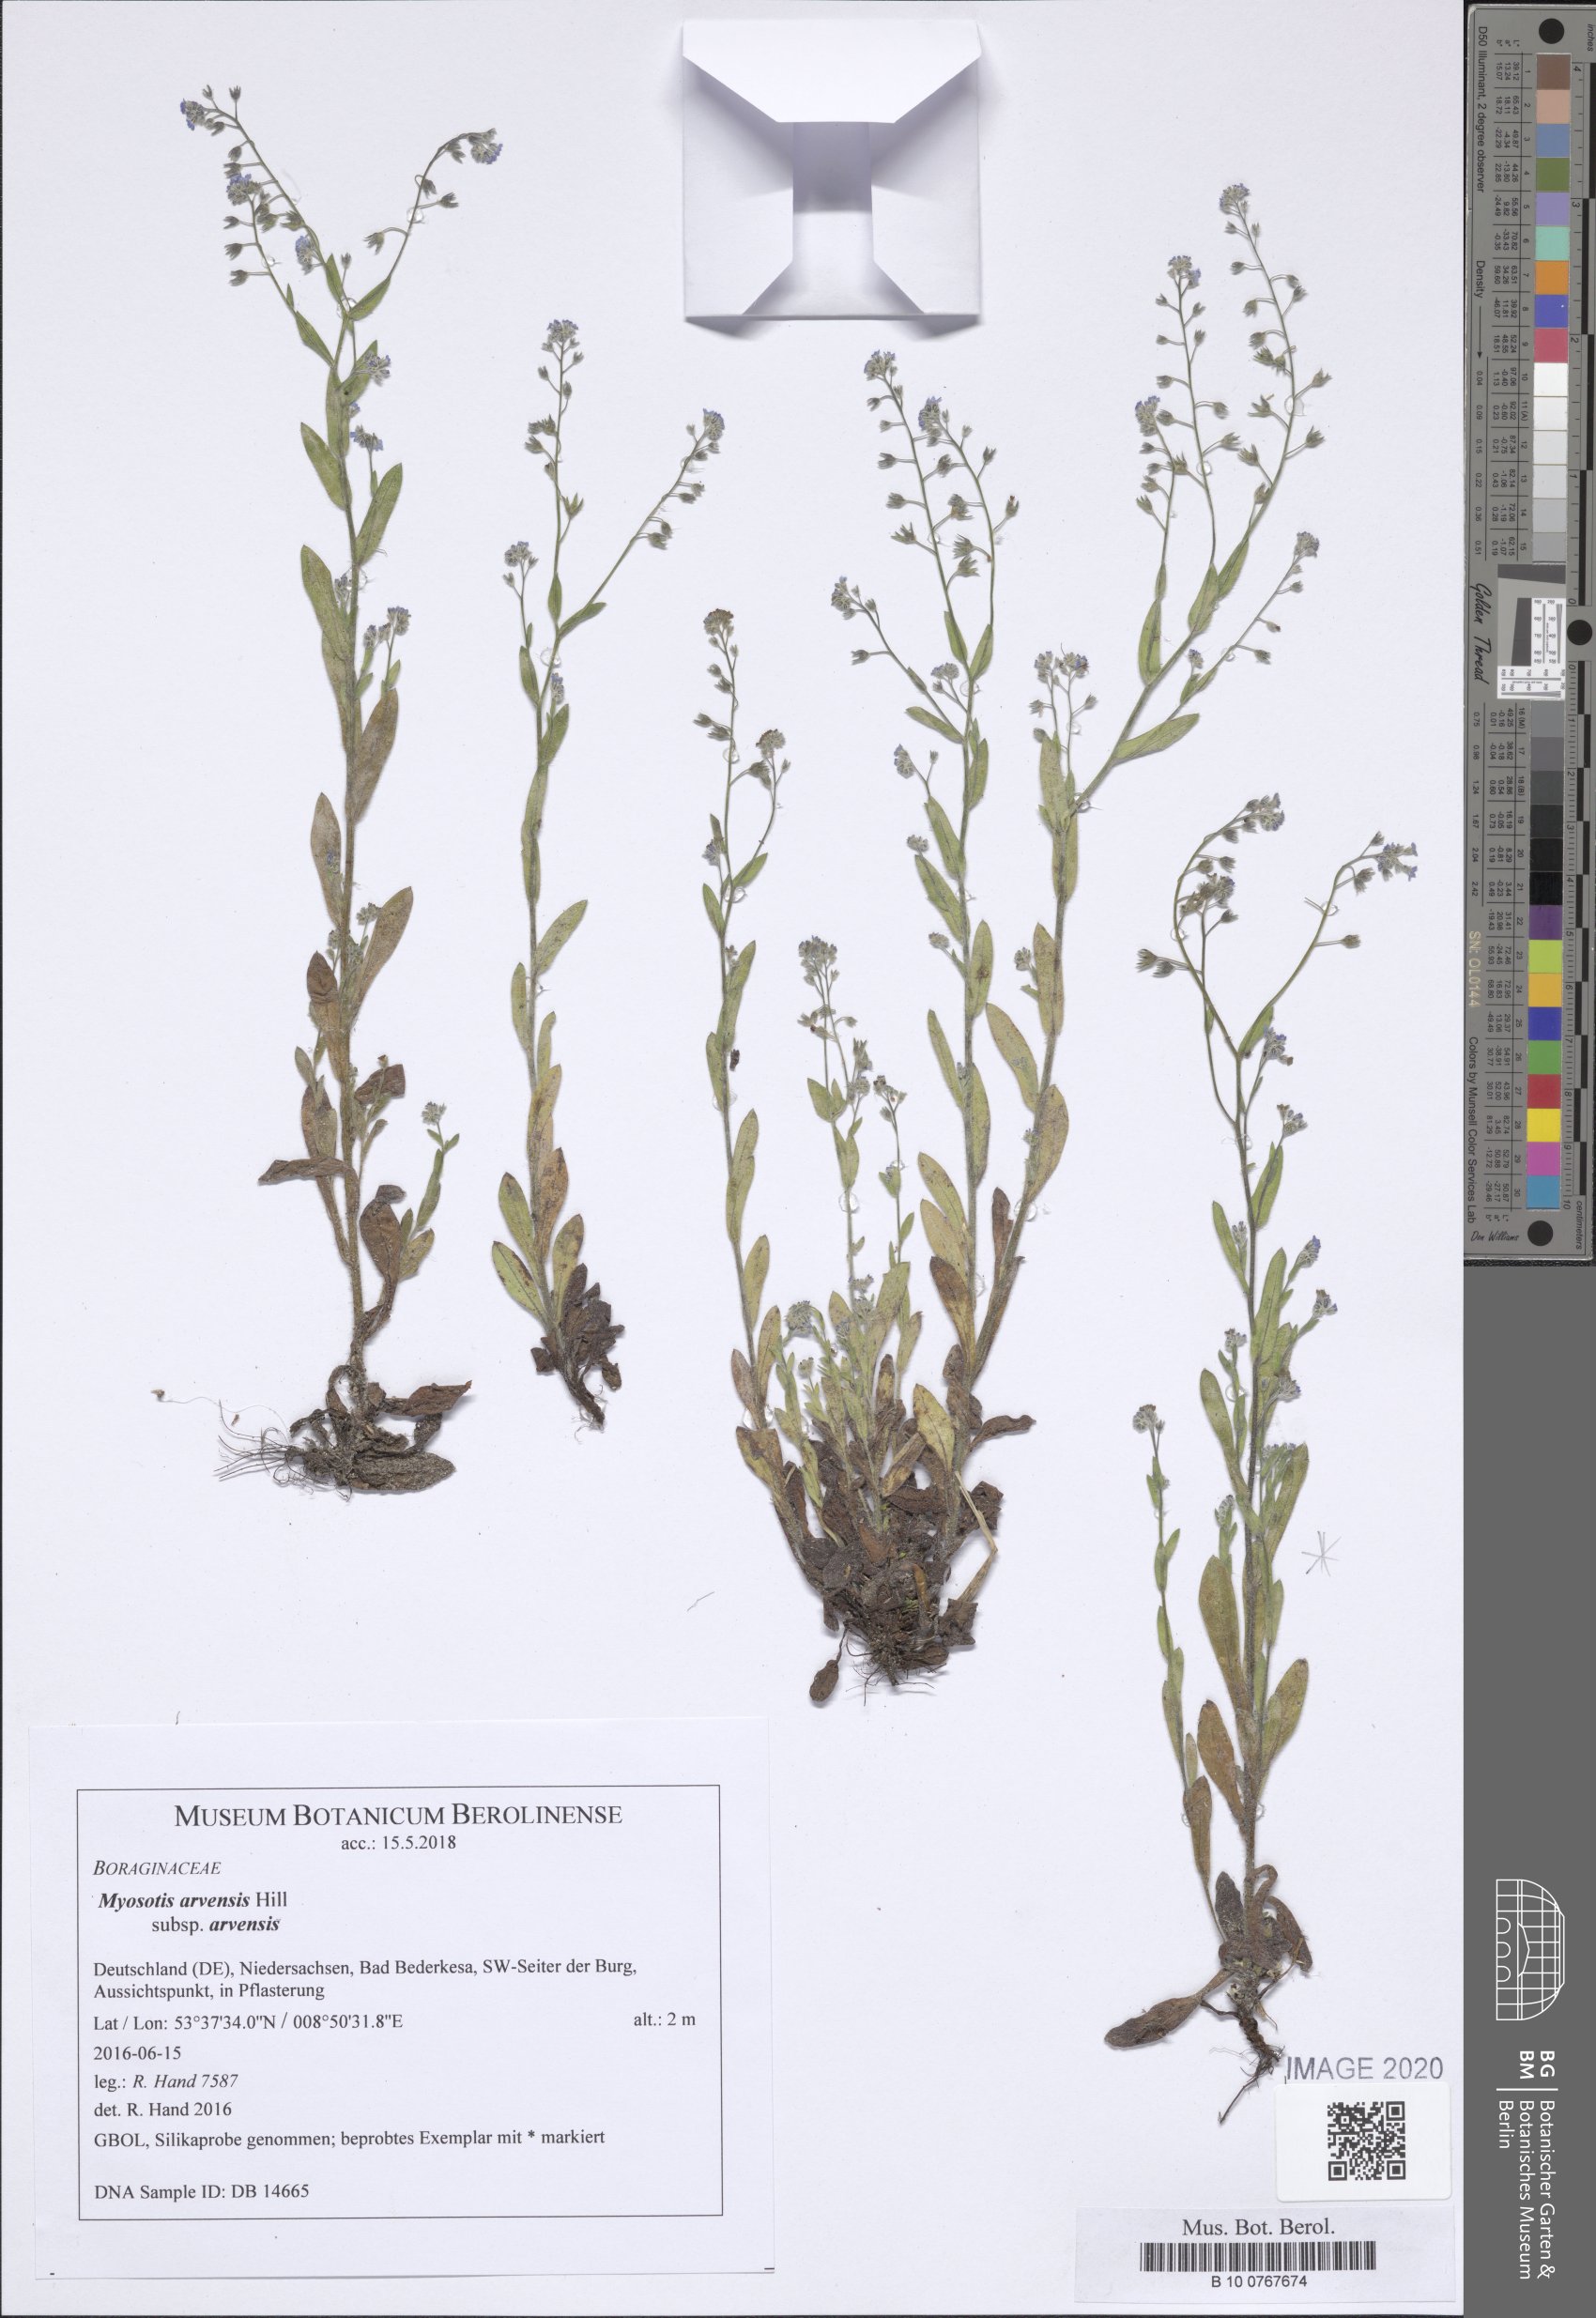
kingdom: Plantae
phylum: Tracheophyta
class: Magnoliopsida
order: Boraginales
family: Boraginaceae
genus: Myosotis
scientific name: Myosotis arvensis
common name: Field forget-me-not
